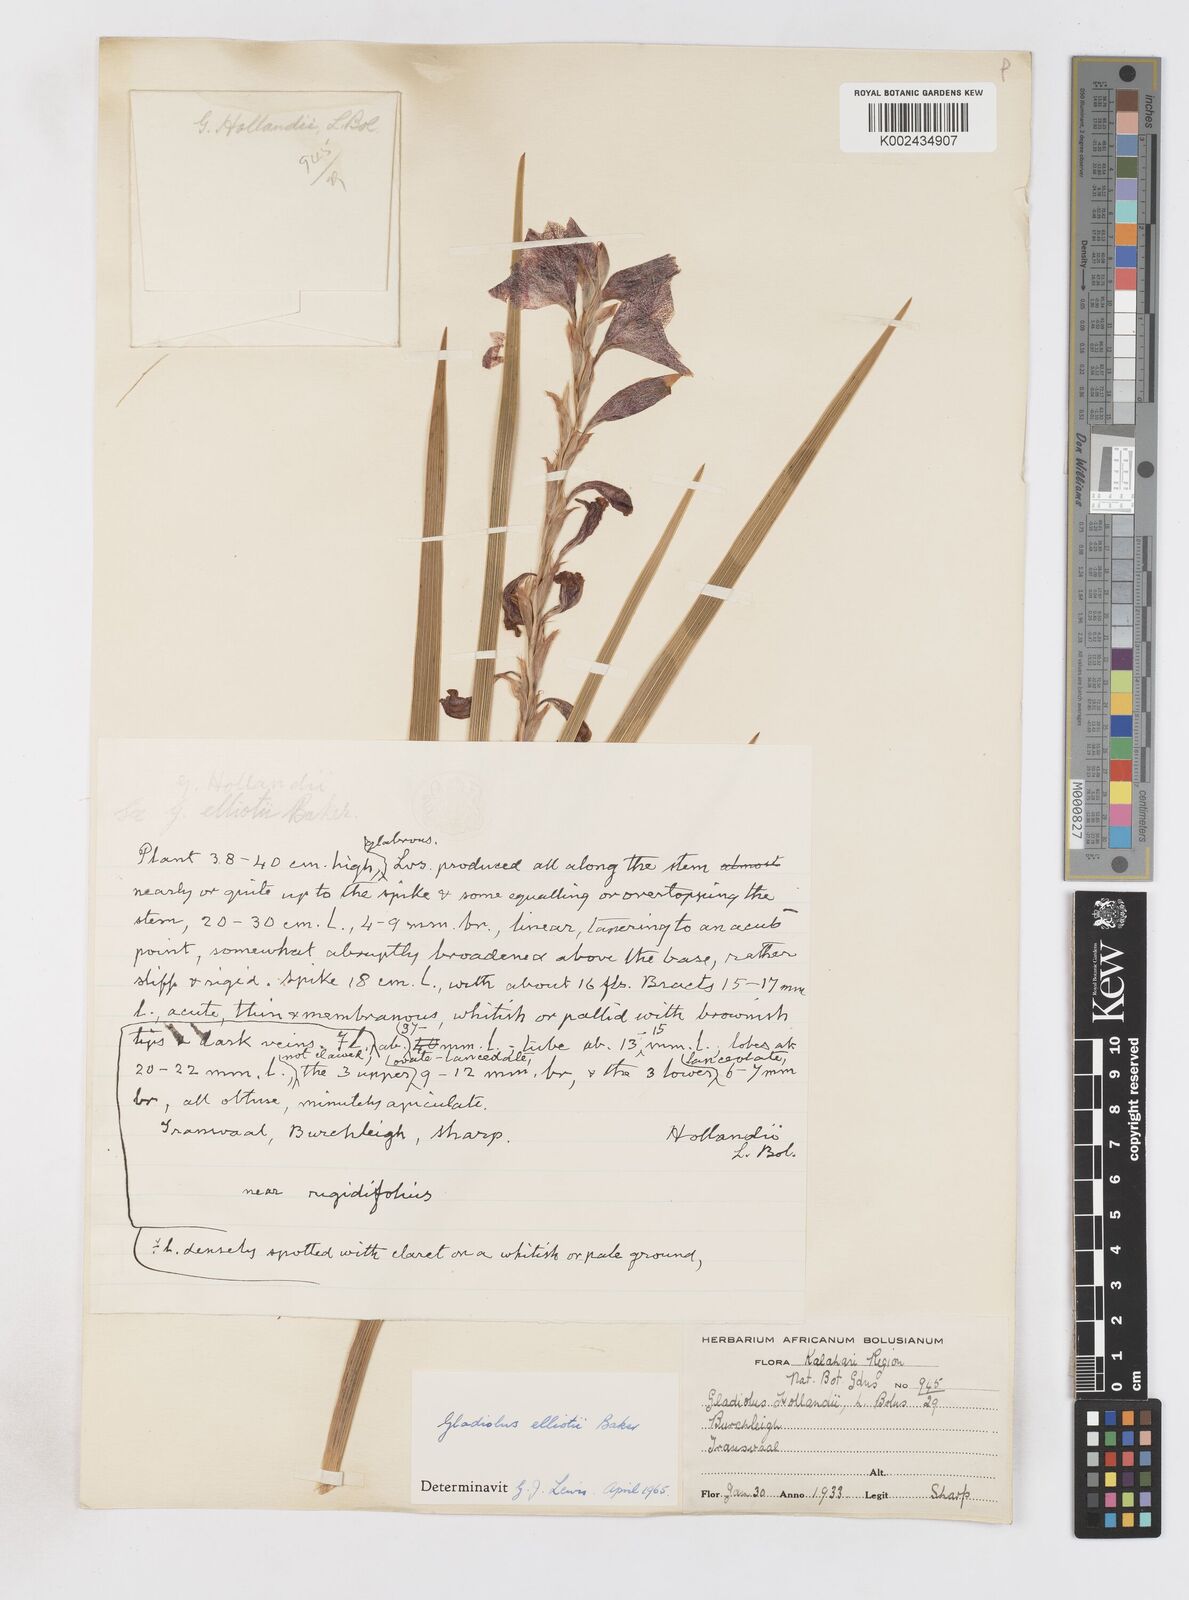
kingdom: Plantae
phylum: Tracheophyta
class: Liliopsida
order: Asparagales
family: Iridaceae
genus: Gladiolus
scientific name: Gladiolus elliotii
